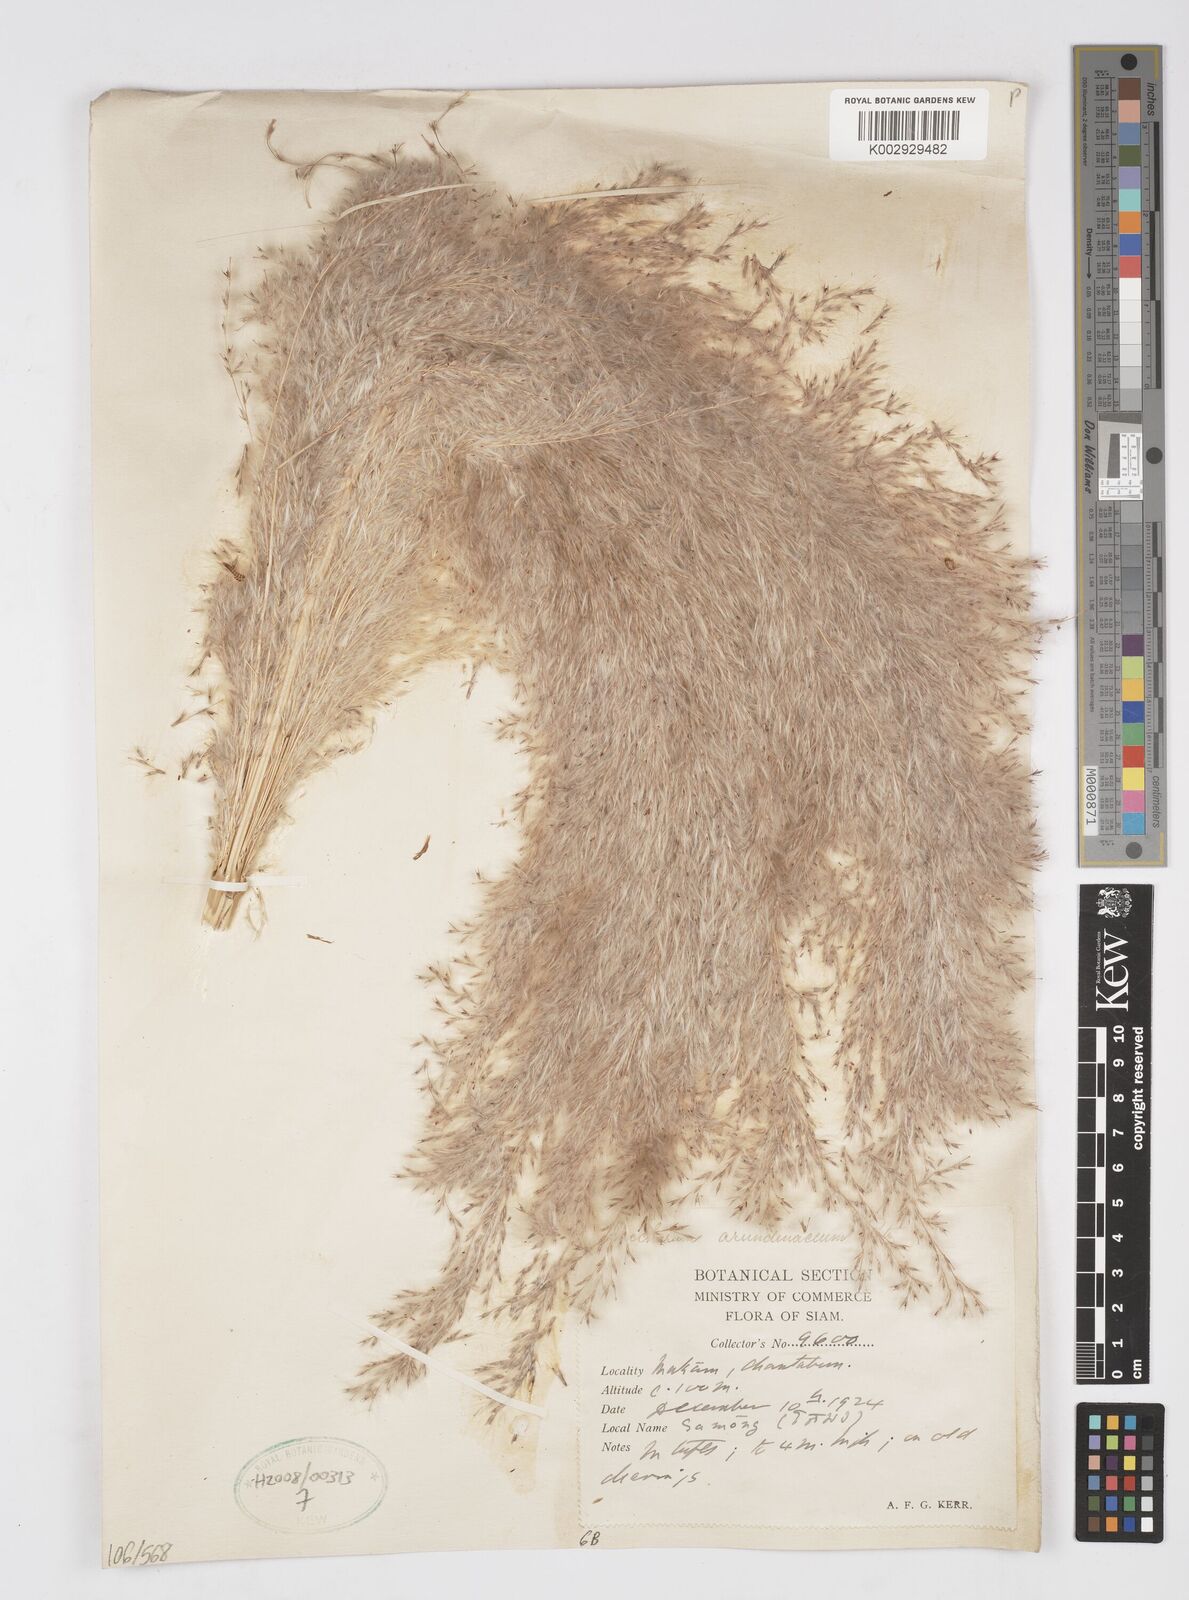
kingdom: Plantae
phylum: Tracheophyta
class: Liliopsida
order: Poales
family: Poaceae
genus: Tripidium
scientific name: Tripidium arundinaceum
